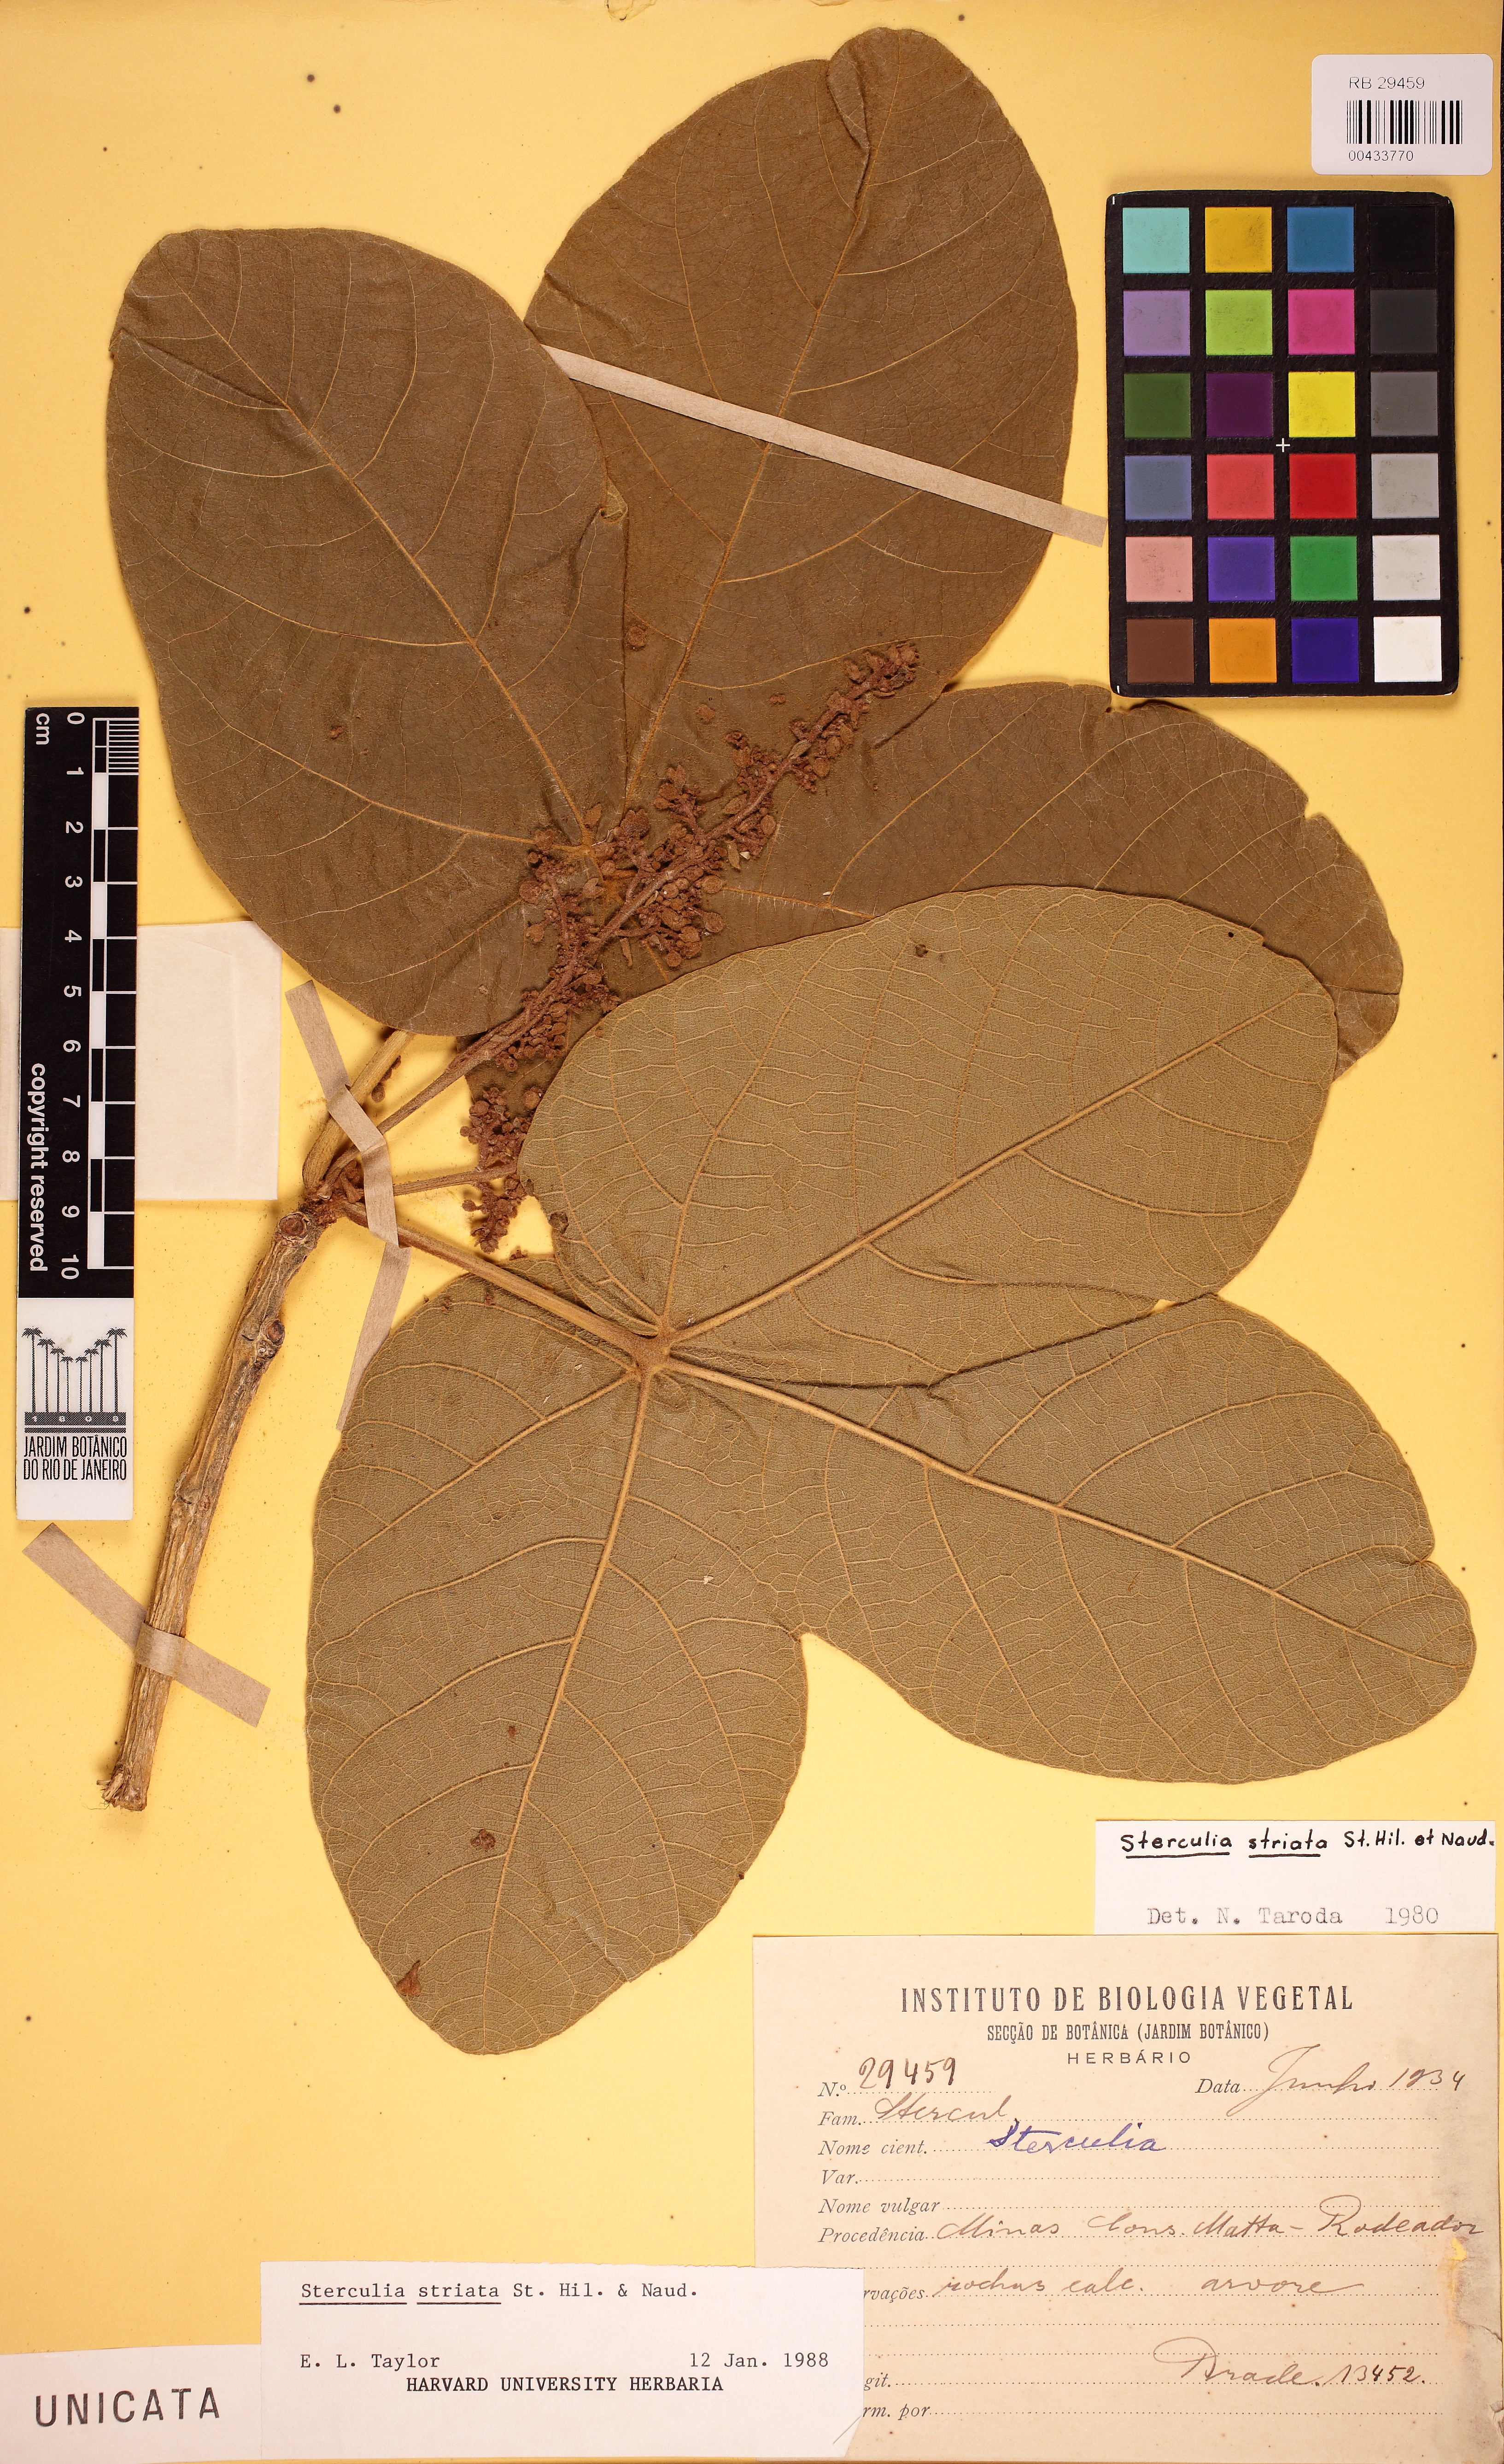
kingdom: Plantae
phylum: Tracheophyta
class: Magnoliopsida
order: Malvales
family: Malvaceae
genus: Sterculia
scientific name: Sterculia striata
